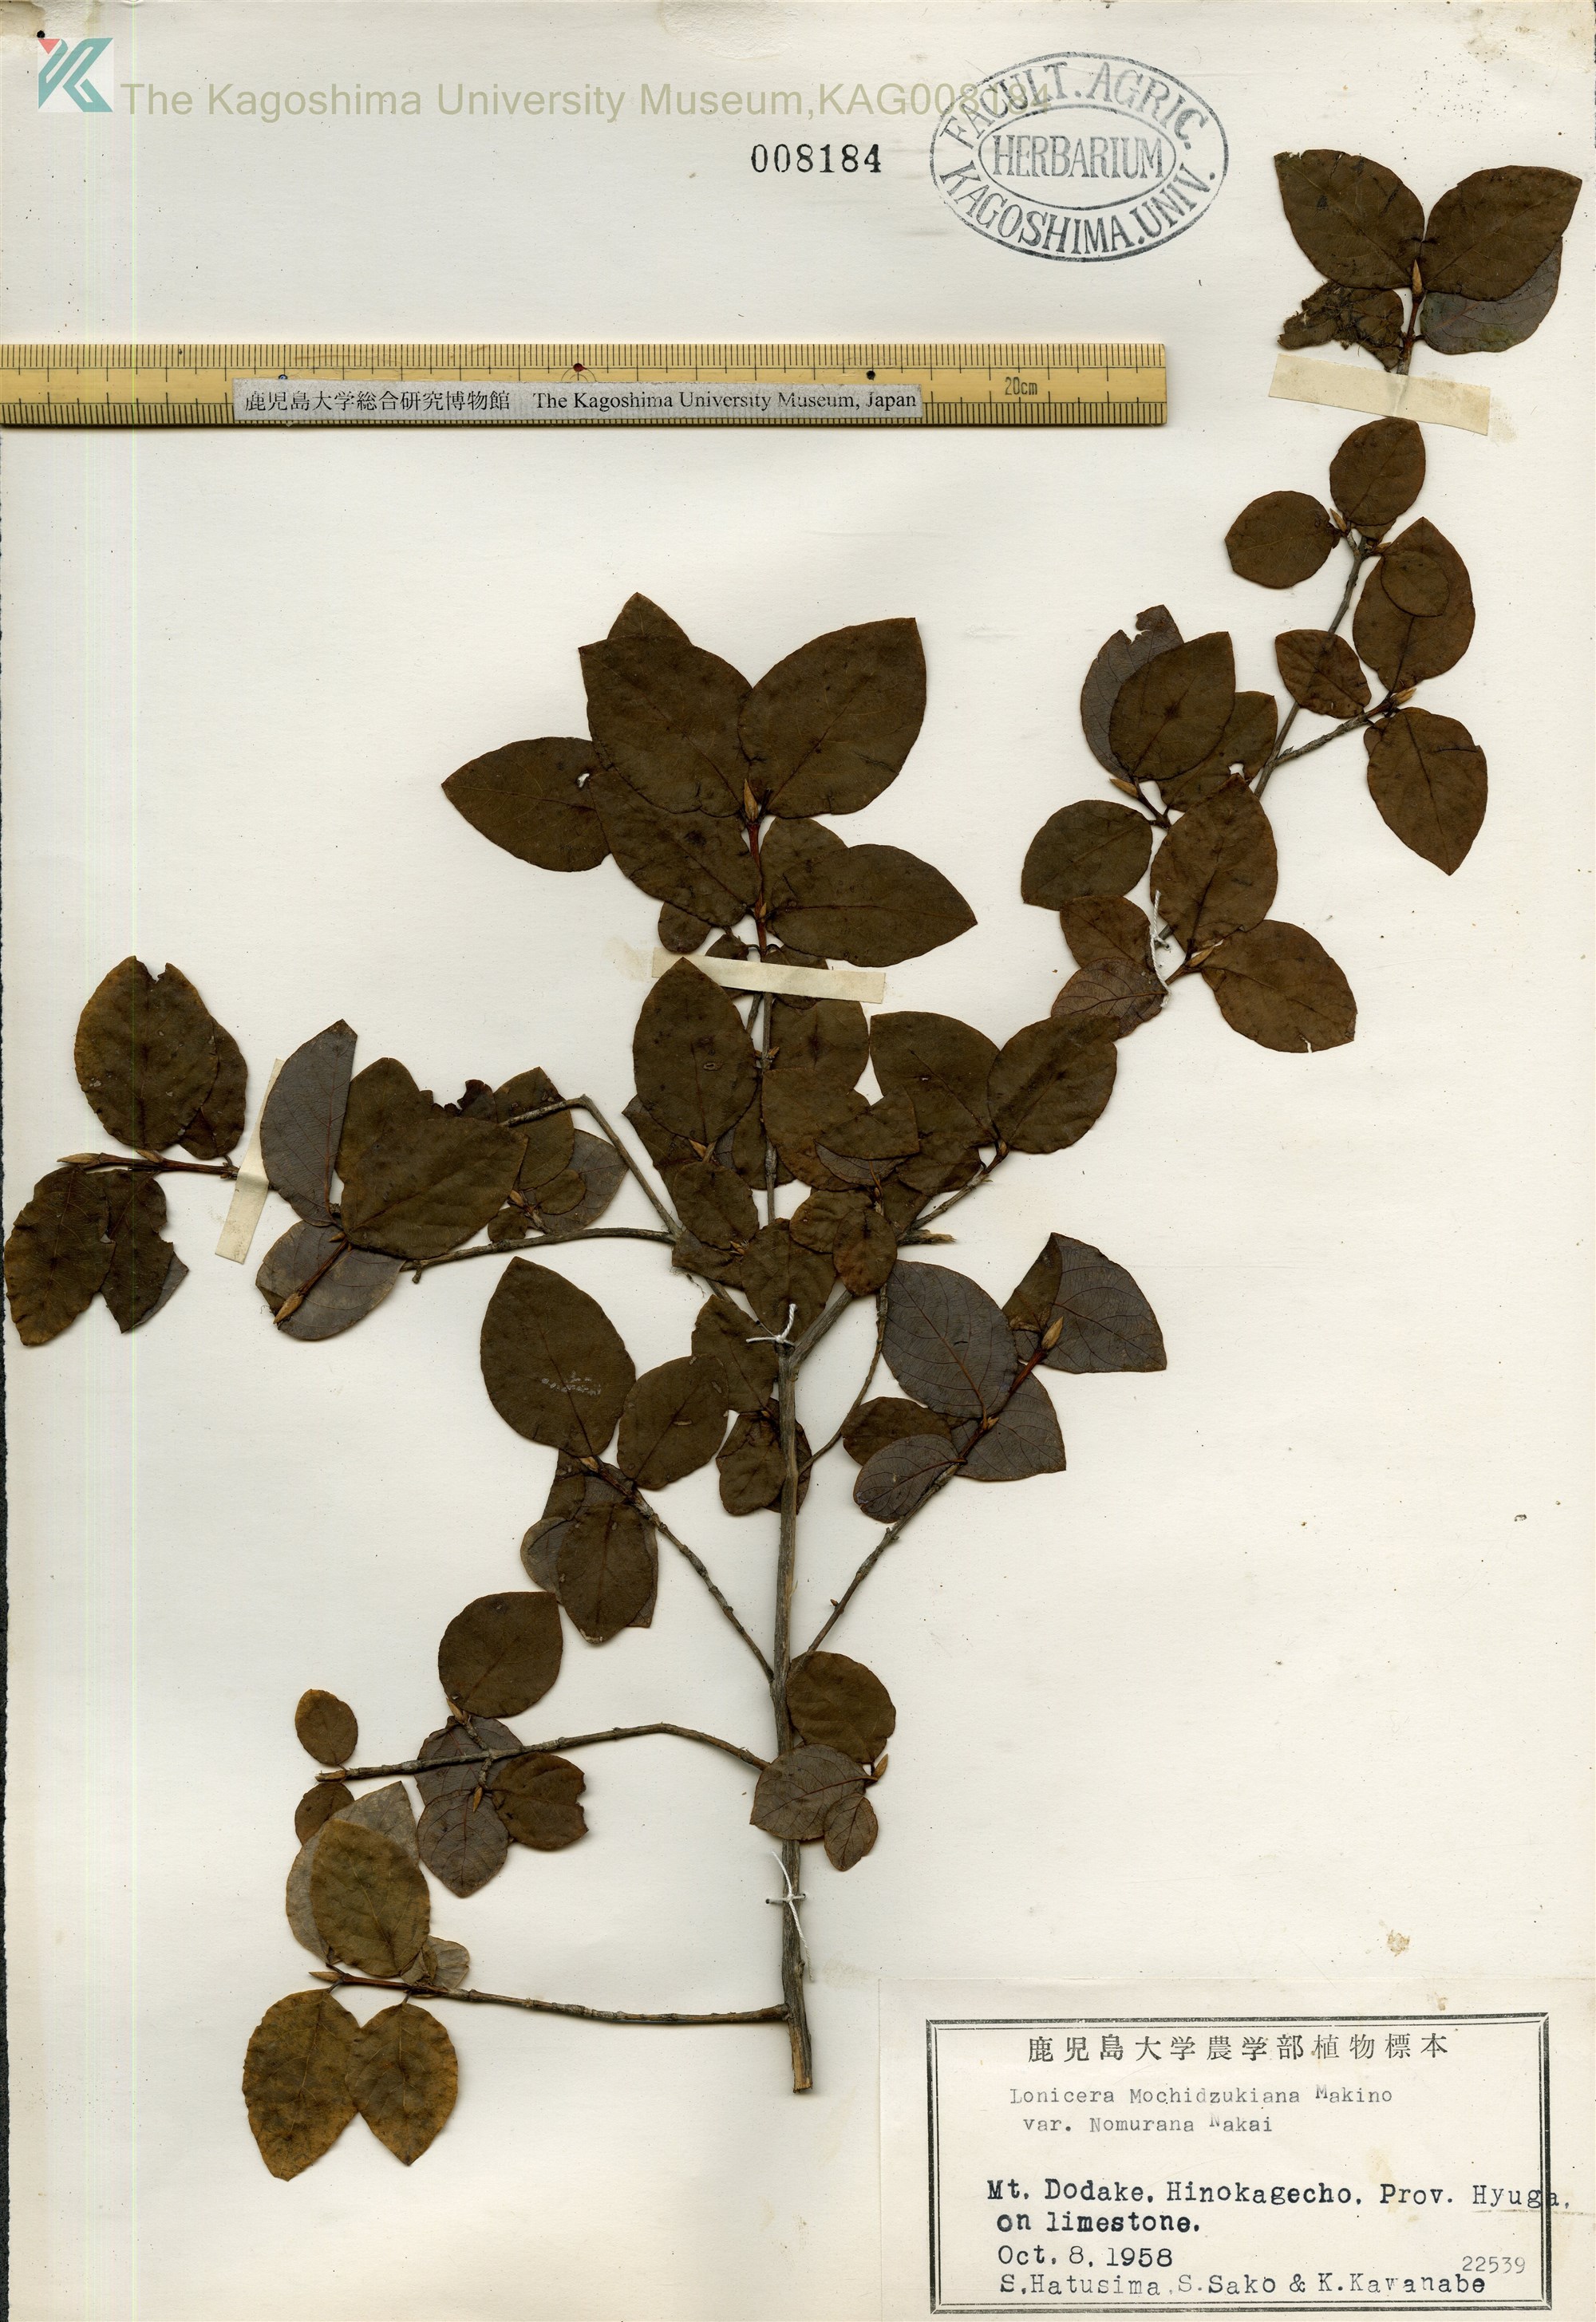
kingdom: Plantae
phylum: Tracheophyta
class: Magnoliopsida
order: Dipsacales
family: Caprifoliaceae
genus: Lonicera
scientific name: Lonicera subhispida
